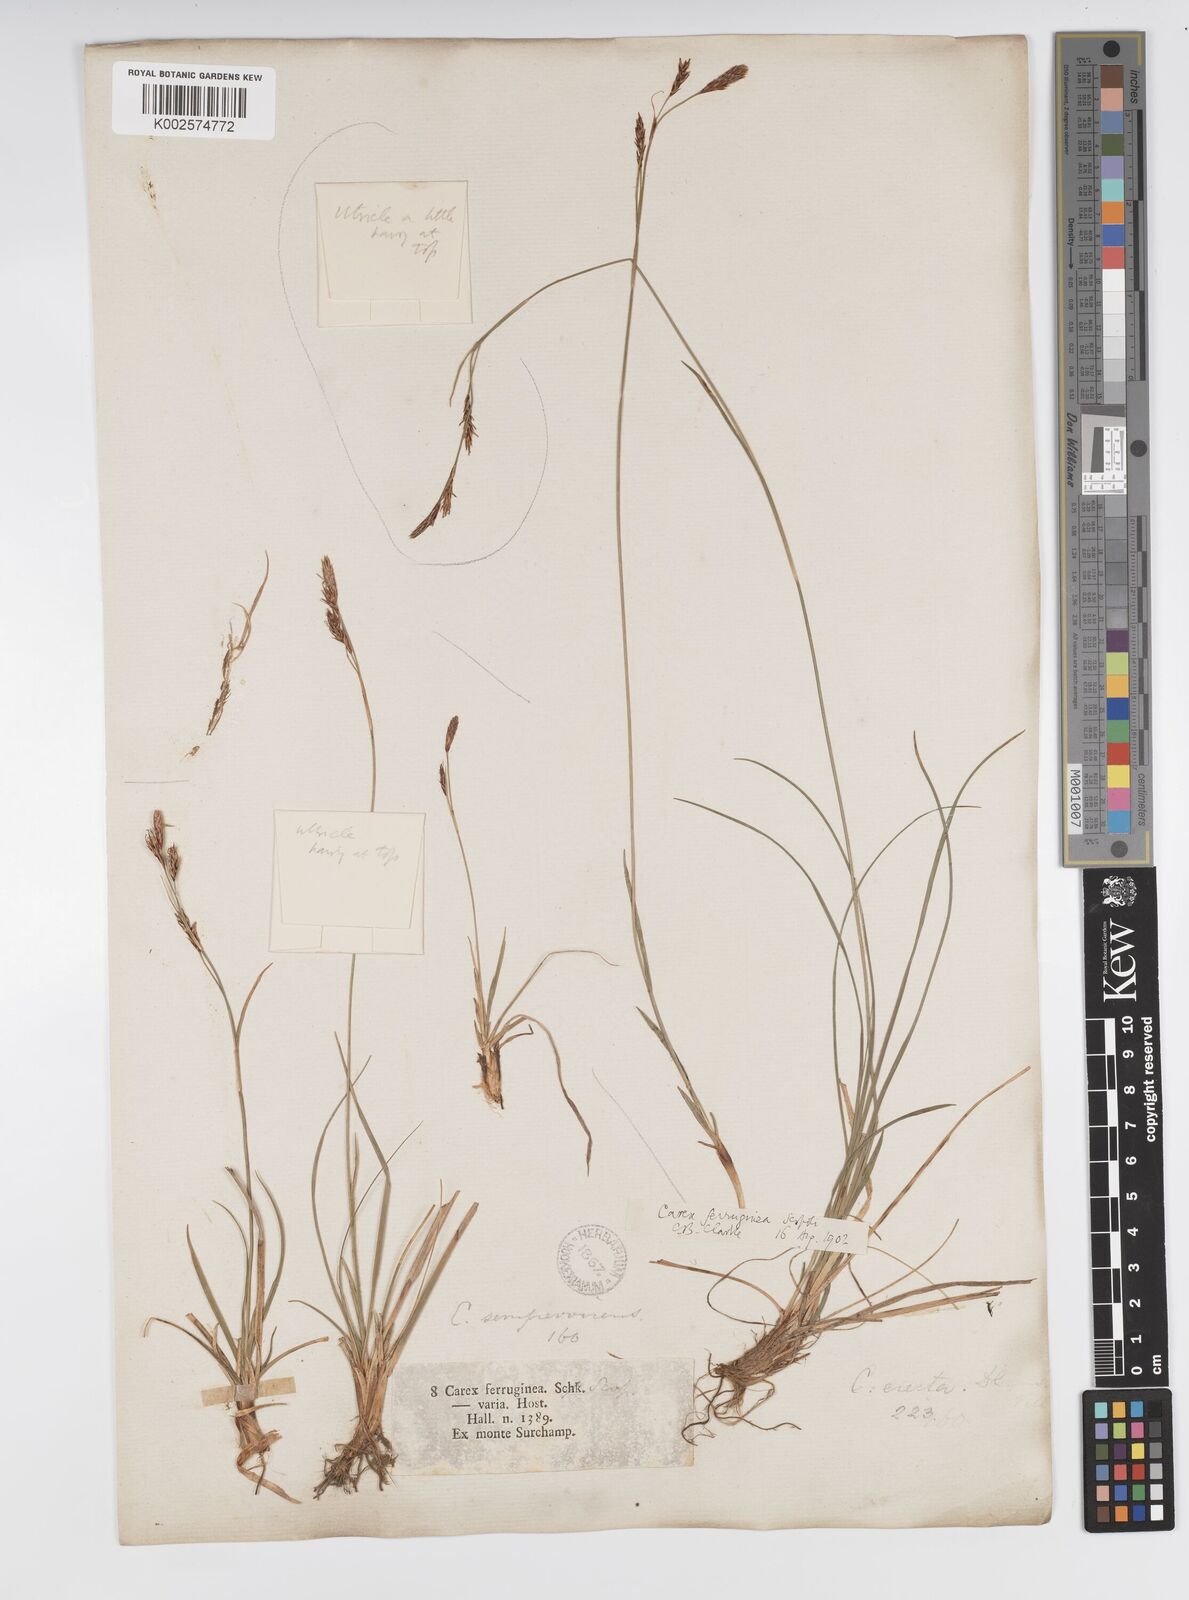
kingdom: Plantae
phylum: Tracheophyta
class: Liliopsida
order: Poales
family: Cyperaceae
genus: Carex
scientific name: Carex austroalpina
